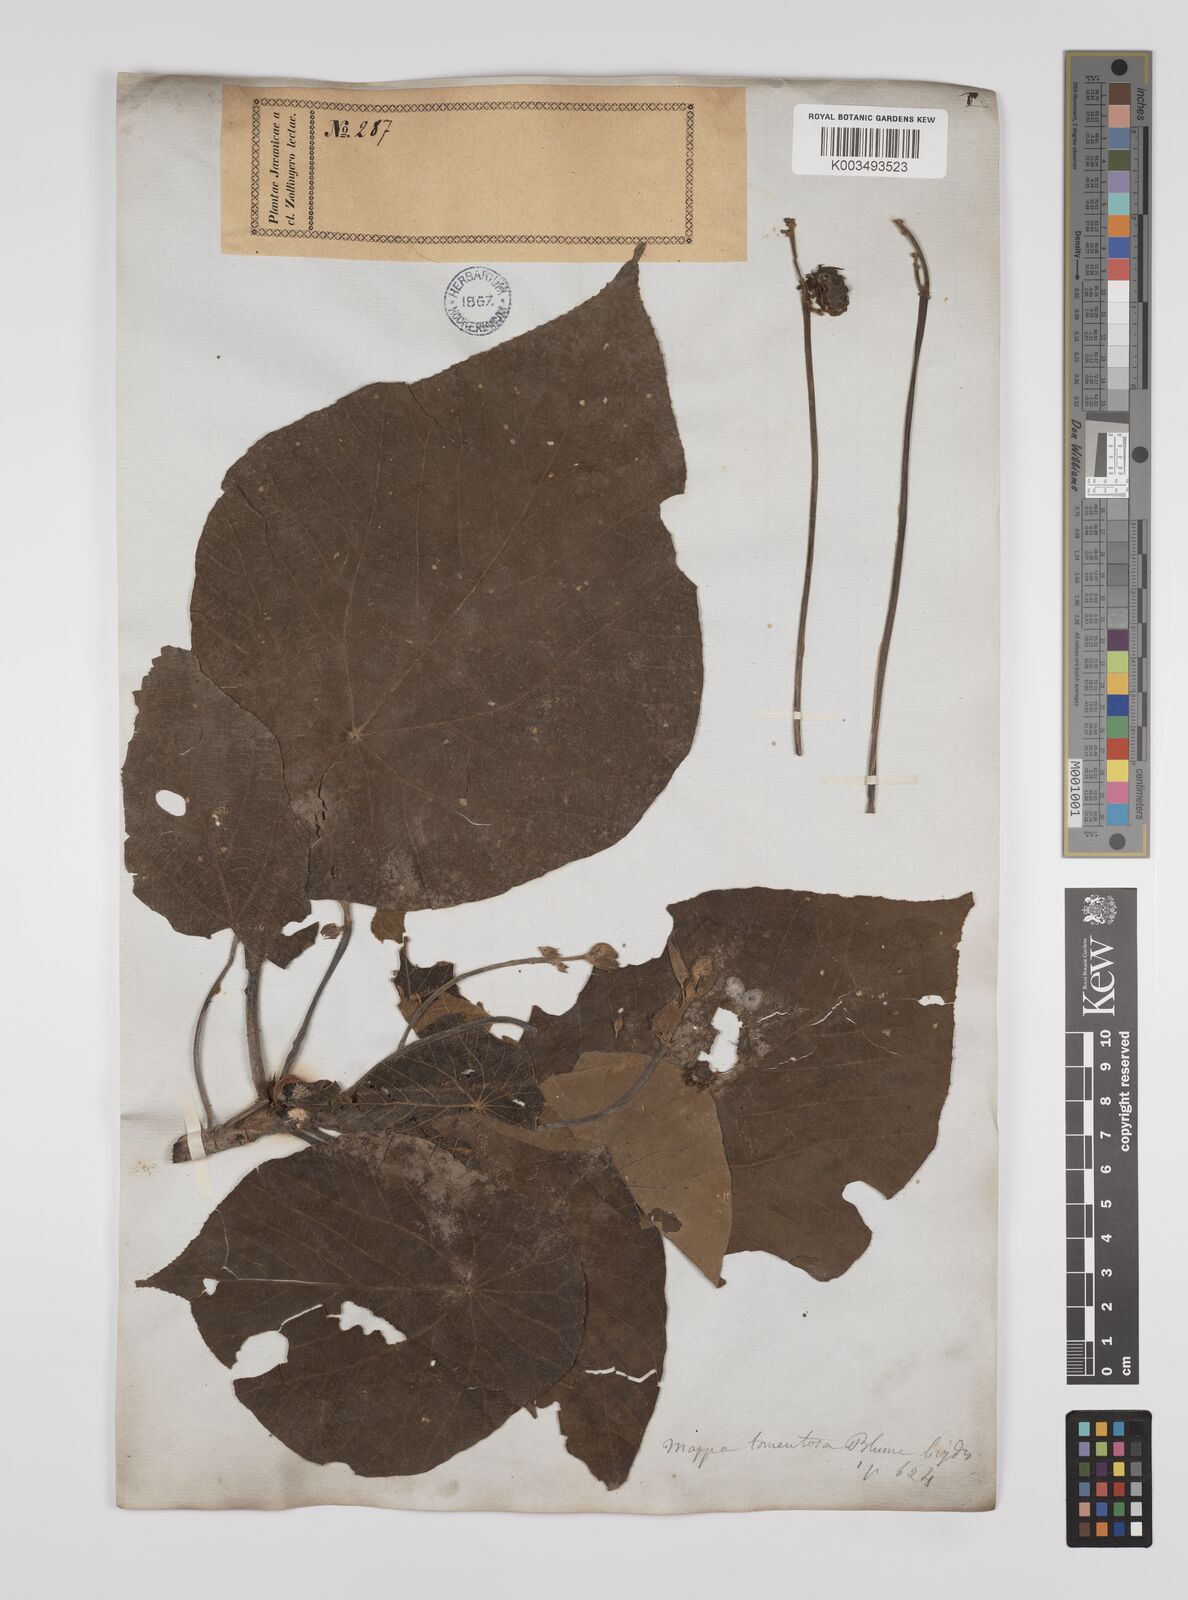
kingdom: Plantae
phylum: Tracheophyta
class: Magnoliopsida
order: Malpighiales
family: Euphorbiaceae
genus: Macaranga
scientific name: Macaranga tanarius
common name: Parasol leaf tree
